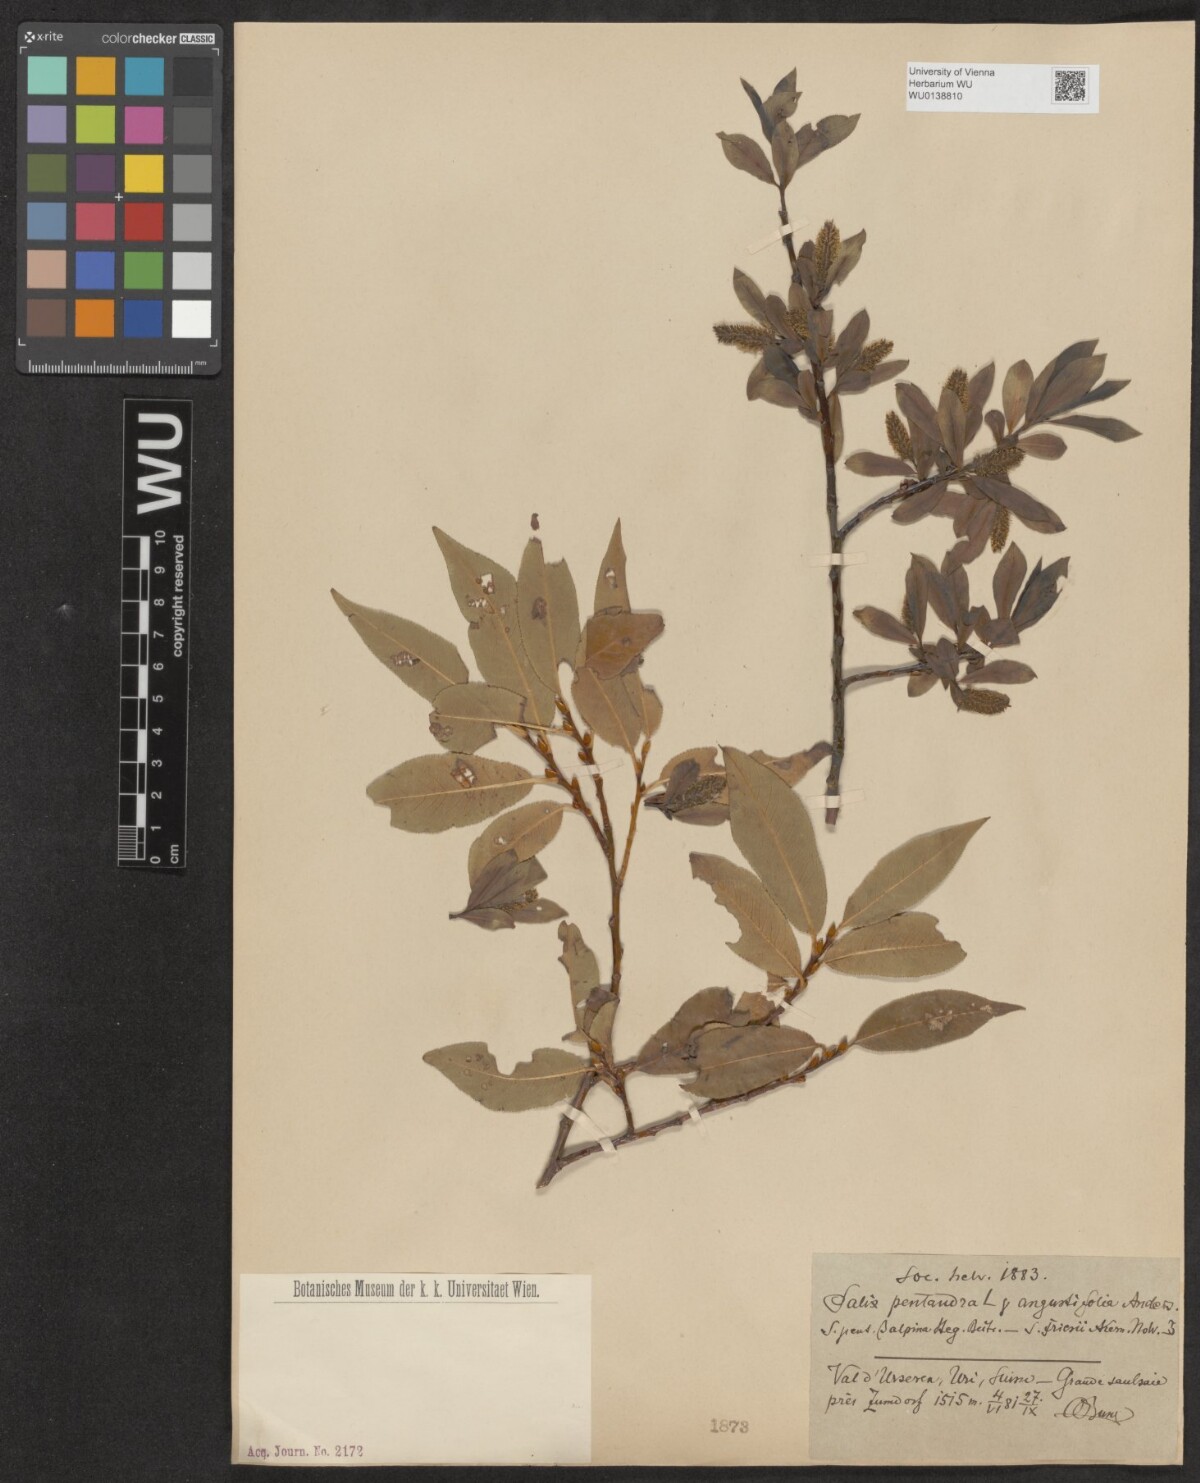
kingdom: Plantae
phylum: Tracheophyta
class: Magnoliopsida
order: Malpighiales
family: Salicaceae
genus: Salix
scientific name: Salix pentandra
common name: Bay willow
